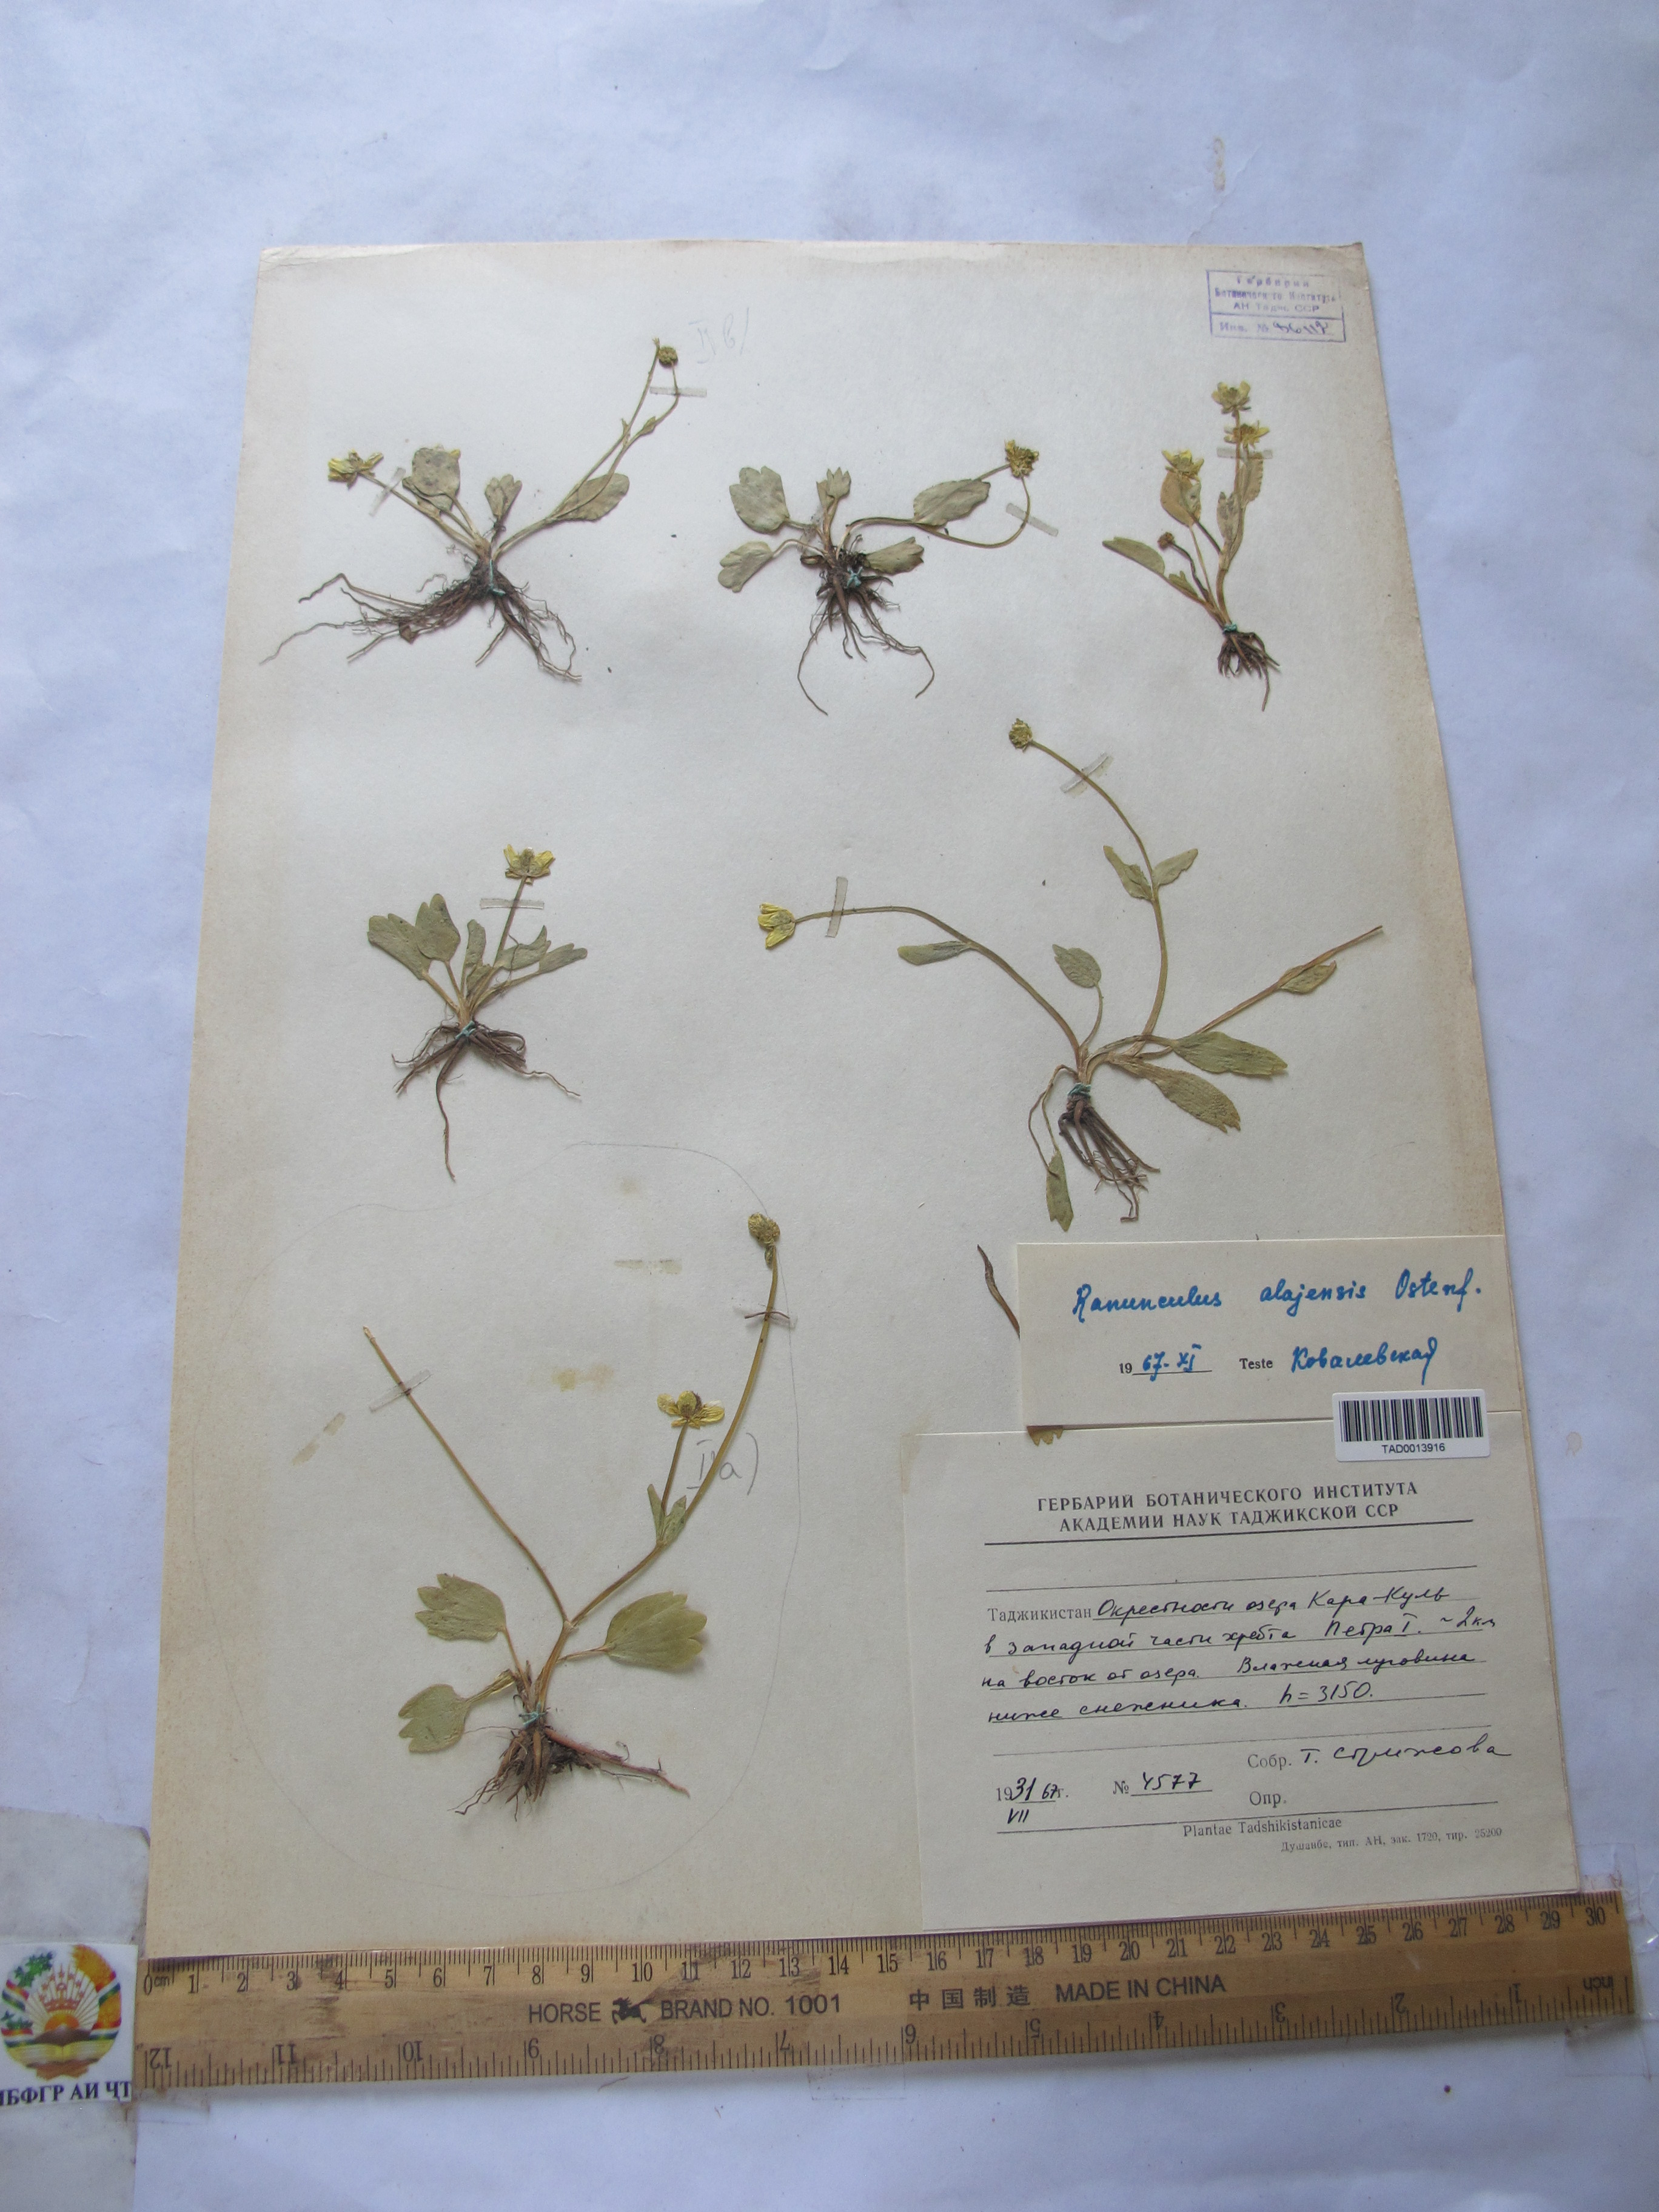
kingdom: Plantae
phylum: Tracheophyta
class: Magnoliopsida
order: Ranunculales
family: Ranunculaceae
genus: Ranunculus
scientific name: Ranunculus alaiensis
